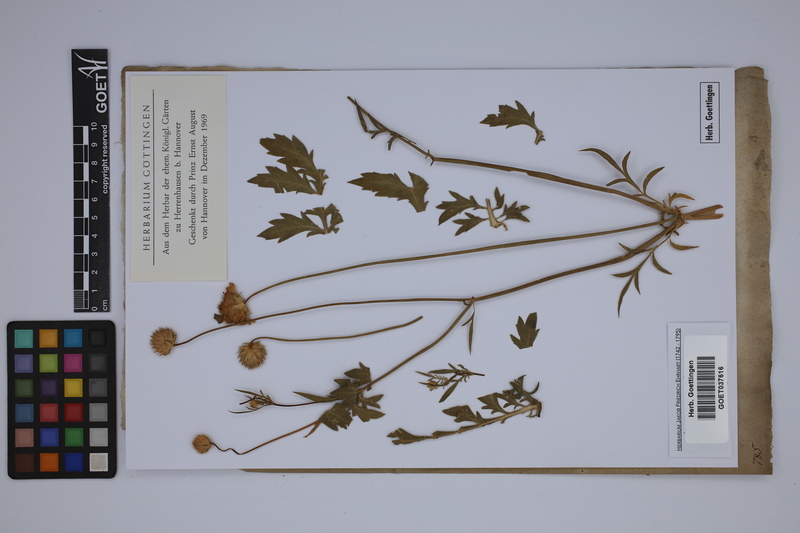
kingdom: Plantae
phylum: Tracheophyta
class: Magnoliopsida
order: Dipsacales
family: Caprifoliaceae
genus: Knautia
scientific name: Knautia tatarica
